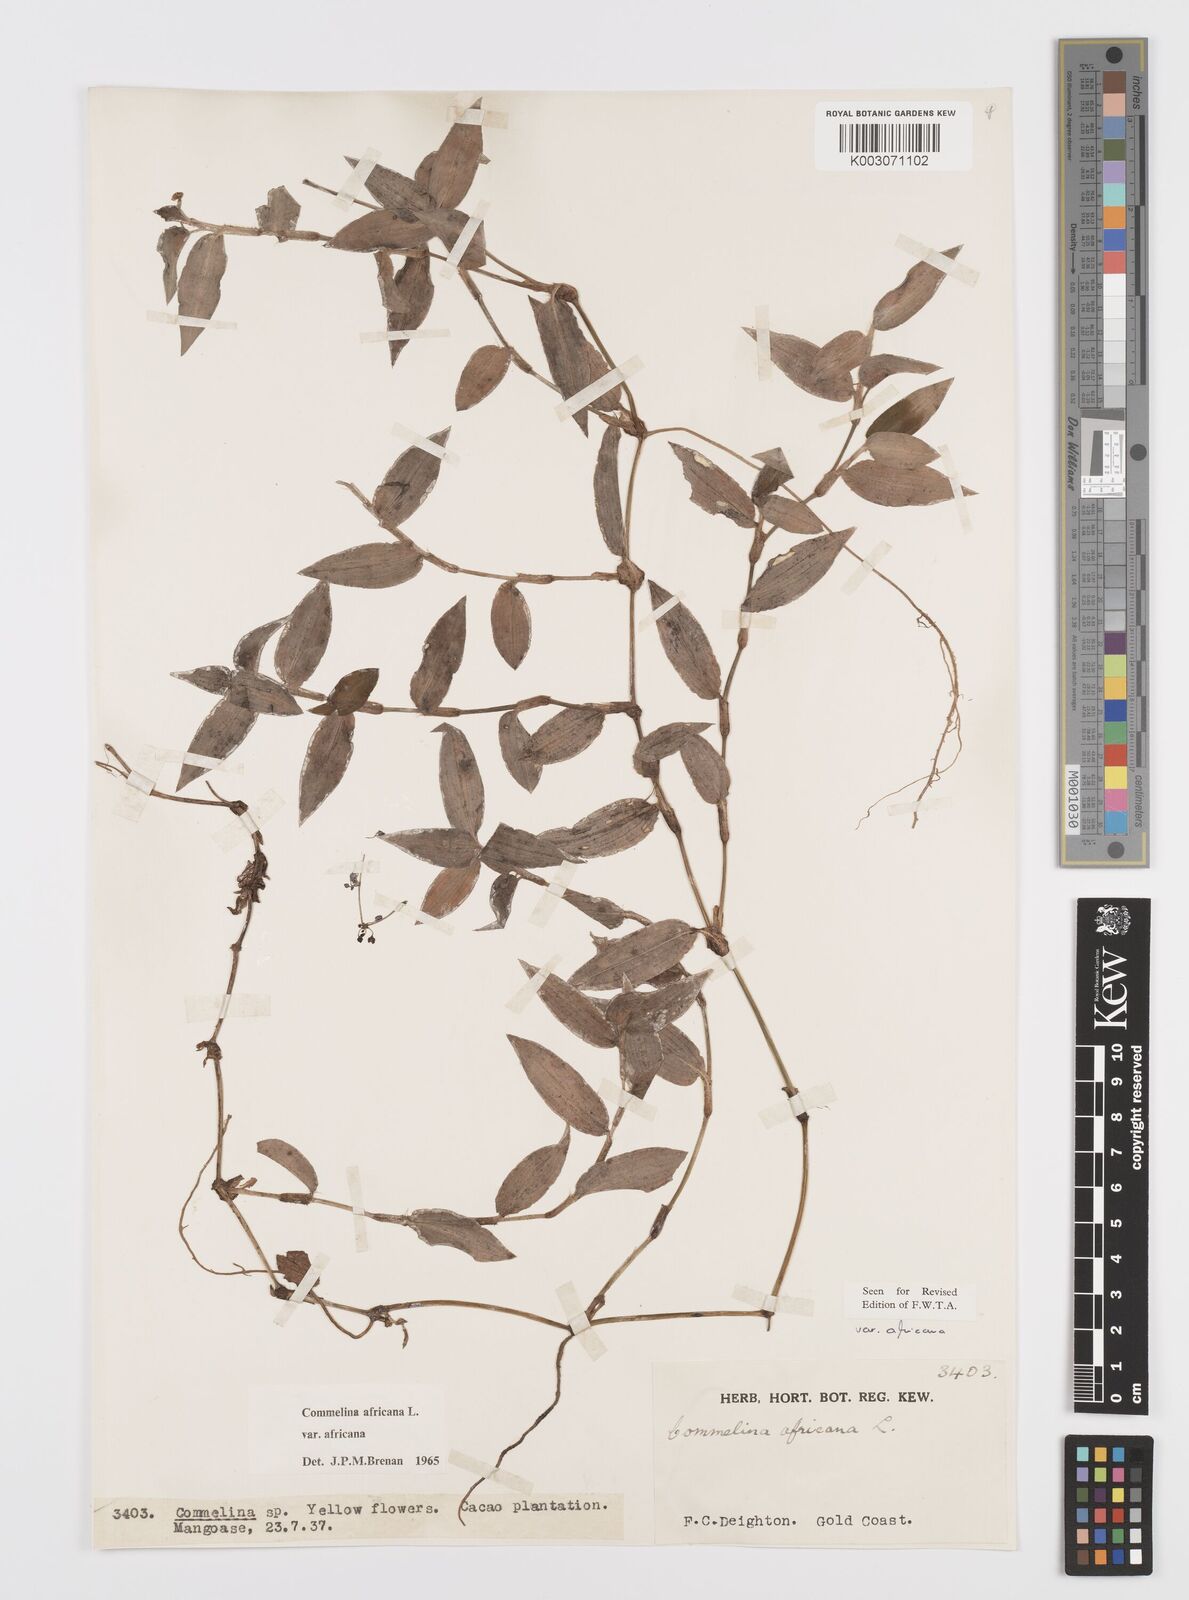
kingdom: Plantae
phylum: Tracheophyta
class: Liliopsida
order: Commelinales
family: Commelinaceae
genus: Commelina
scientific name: Commelina africana
